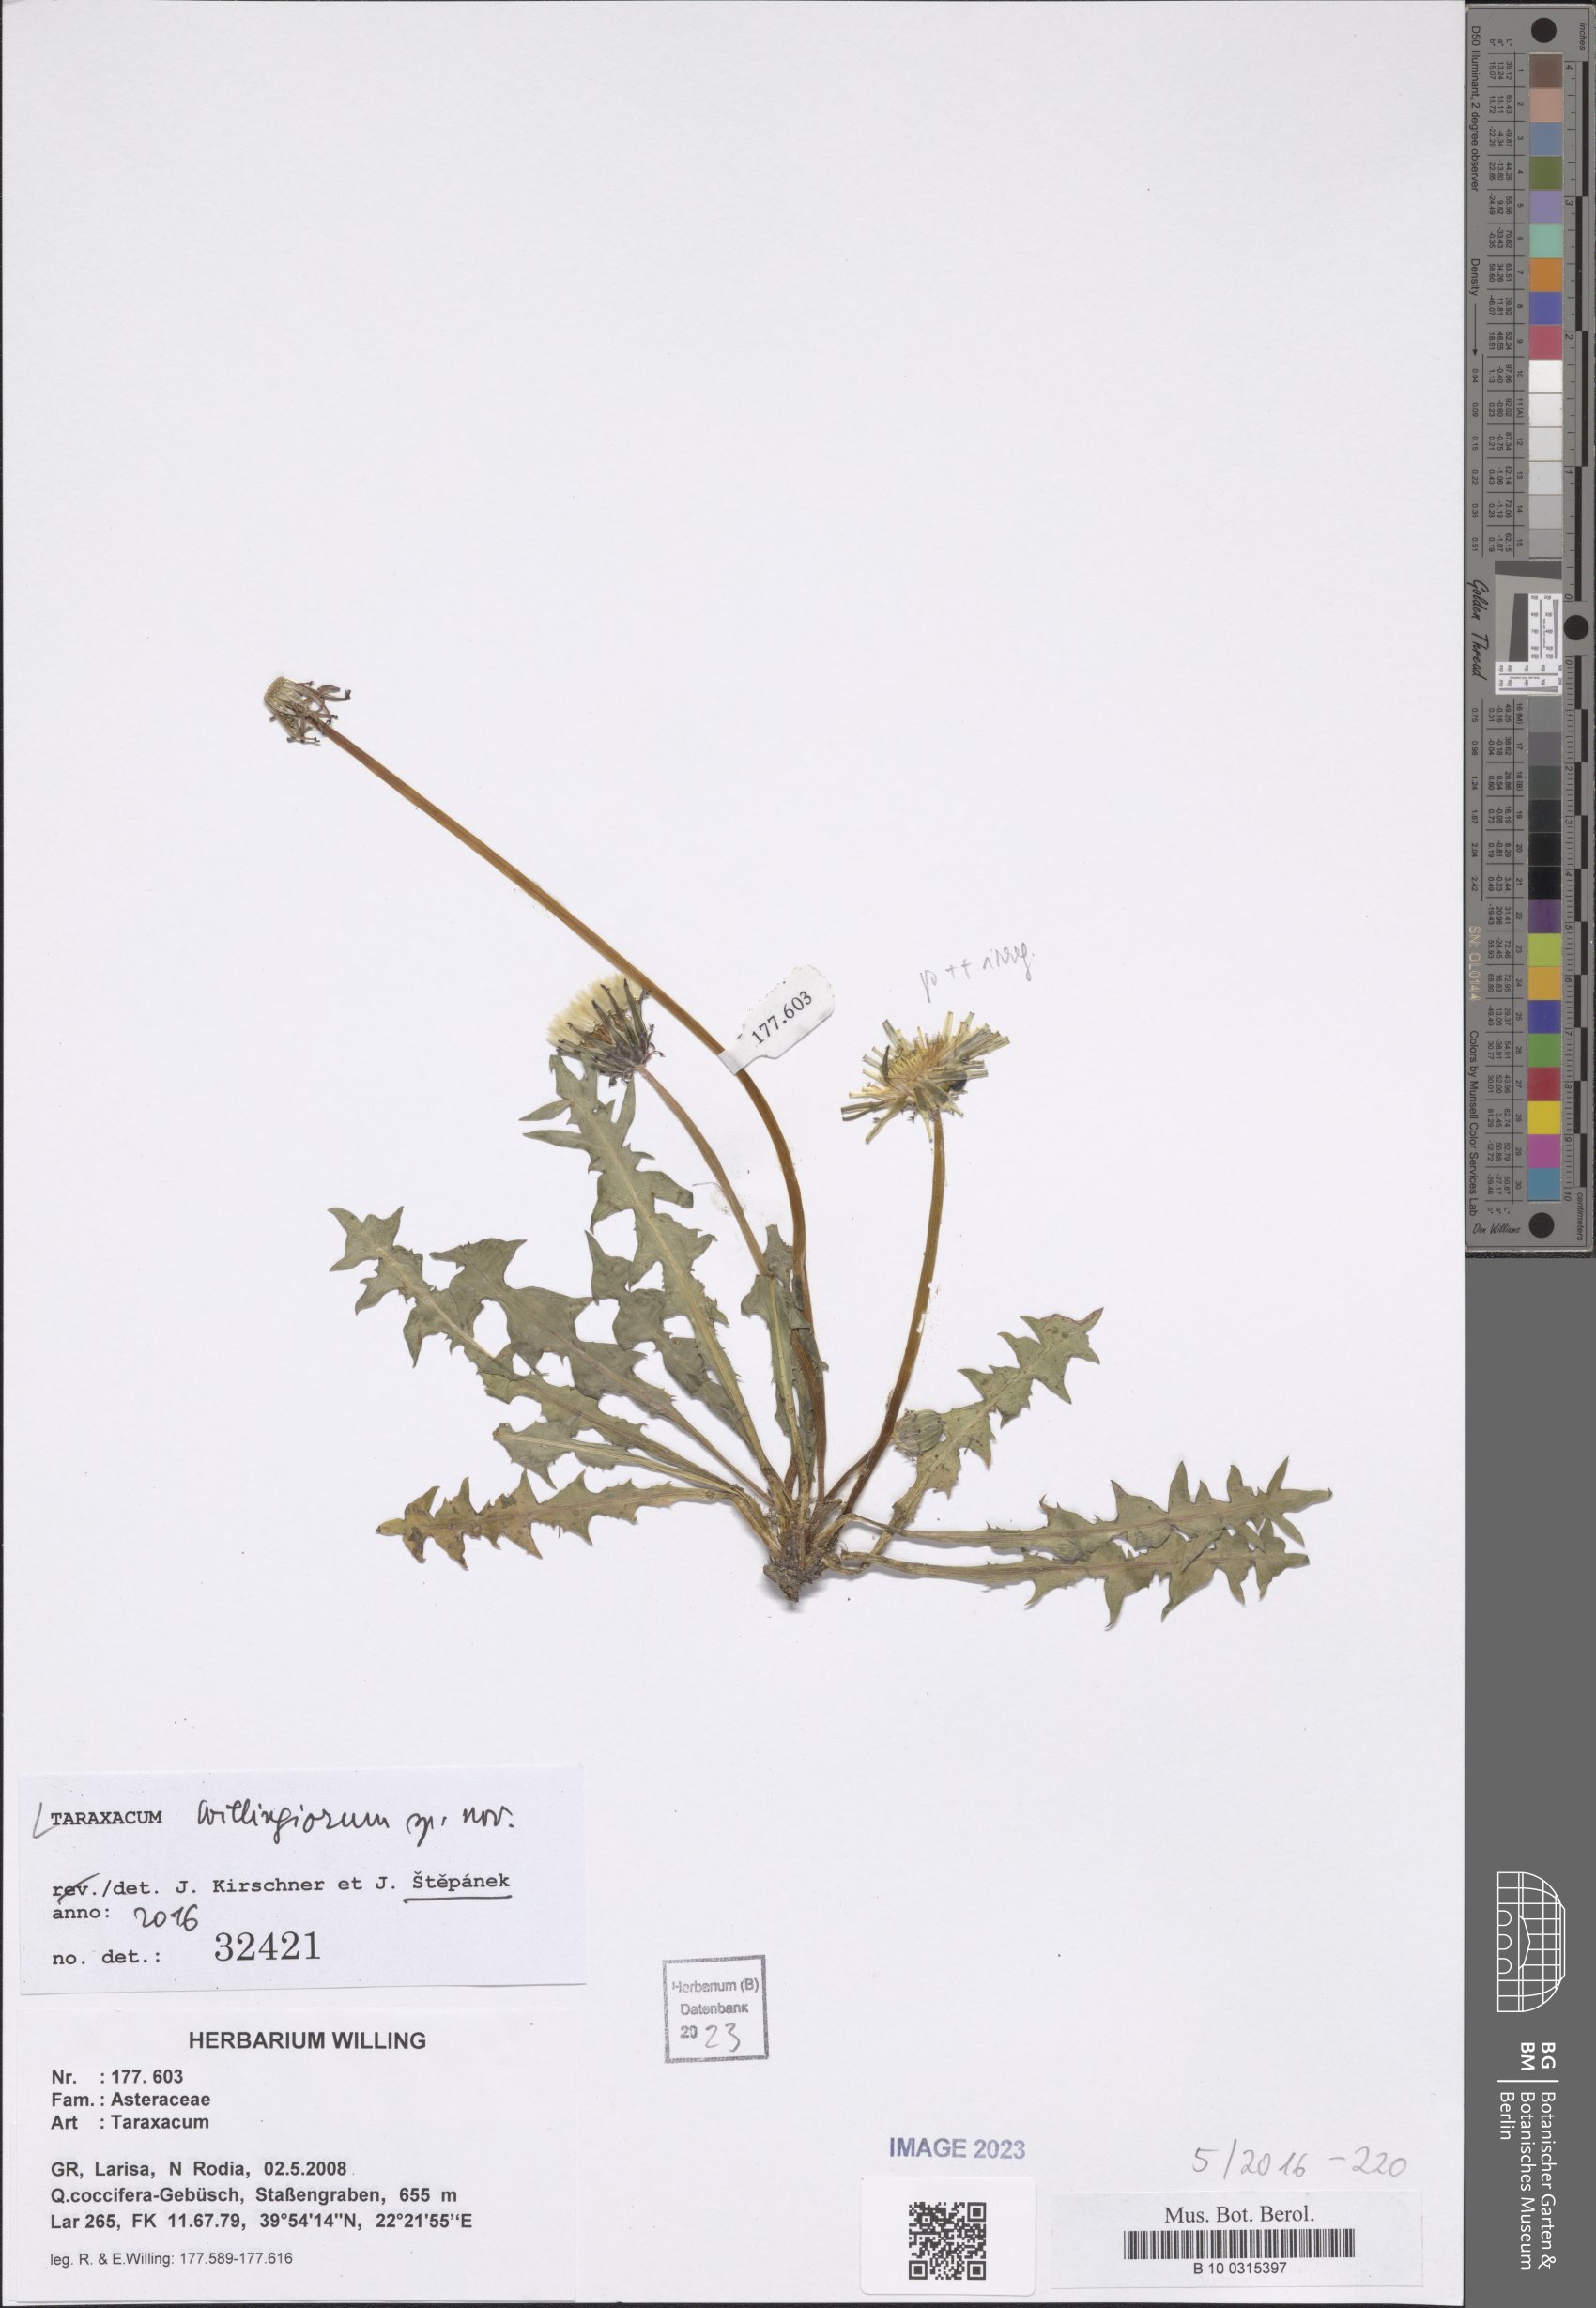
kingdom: Plantae
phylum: Tracheophyta
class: Magnoliopsida
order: Asterales
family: Asteraceae
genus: Taraxacum
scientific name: Taraxacum
